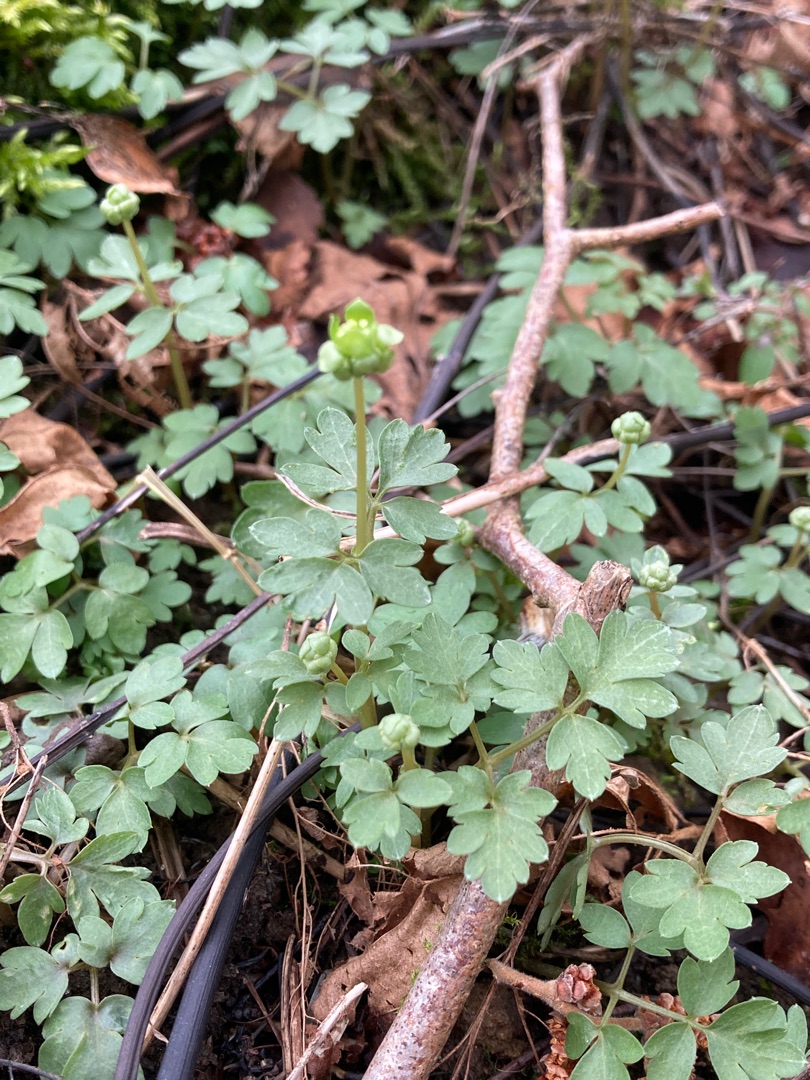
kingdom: Plantae
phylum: Tracheophyta
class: Magnoliopsida
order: Dipsacales
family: Viburnaceae
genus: Adoxa
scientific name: Adoxa moschatellina
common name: Desmerurt
